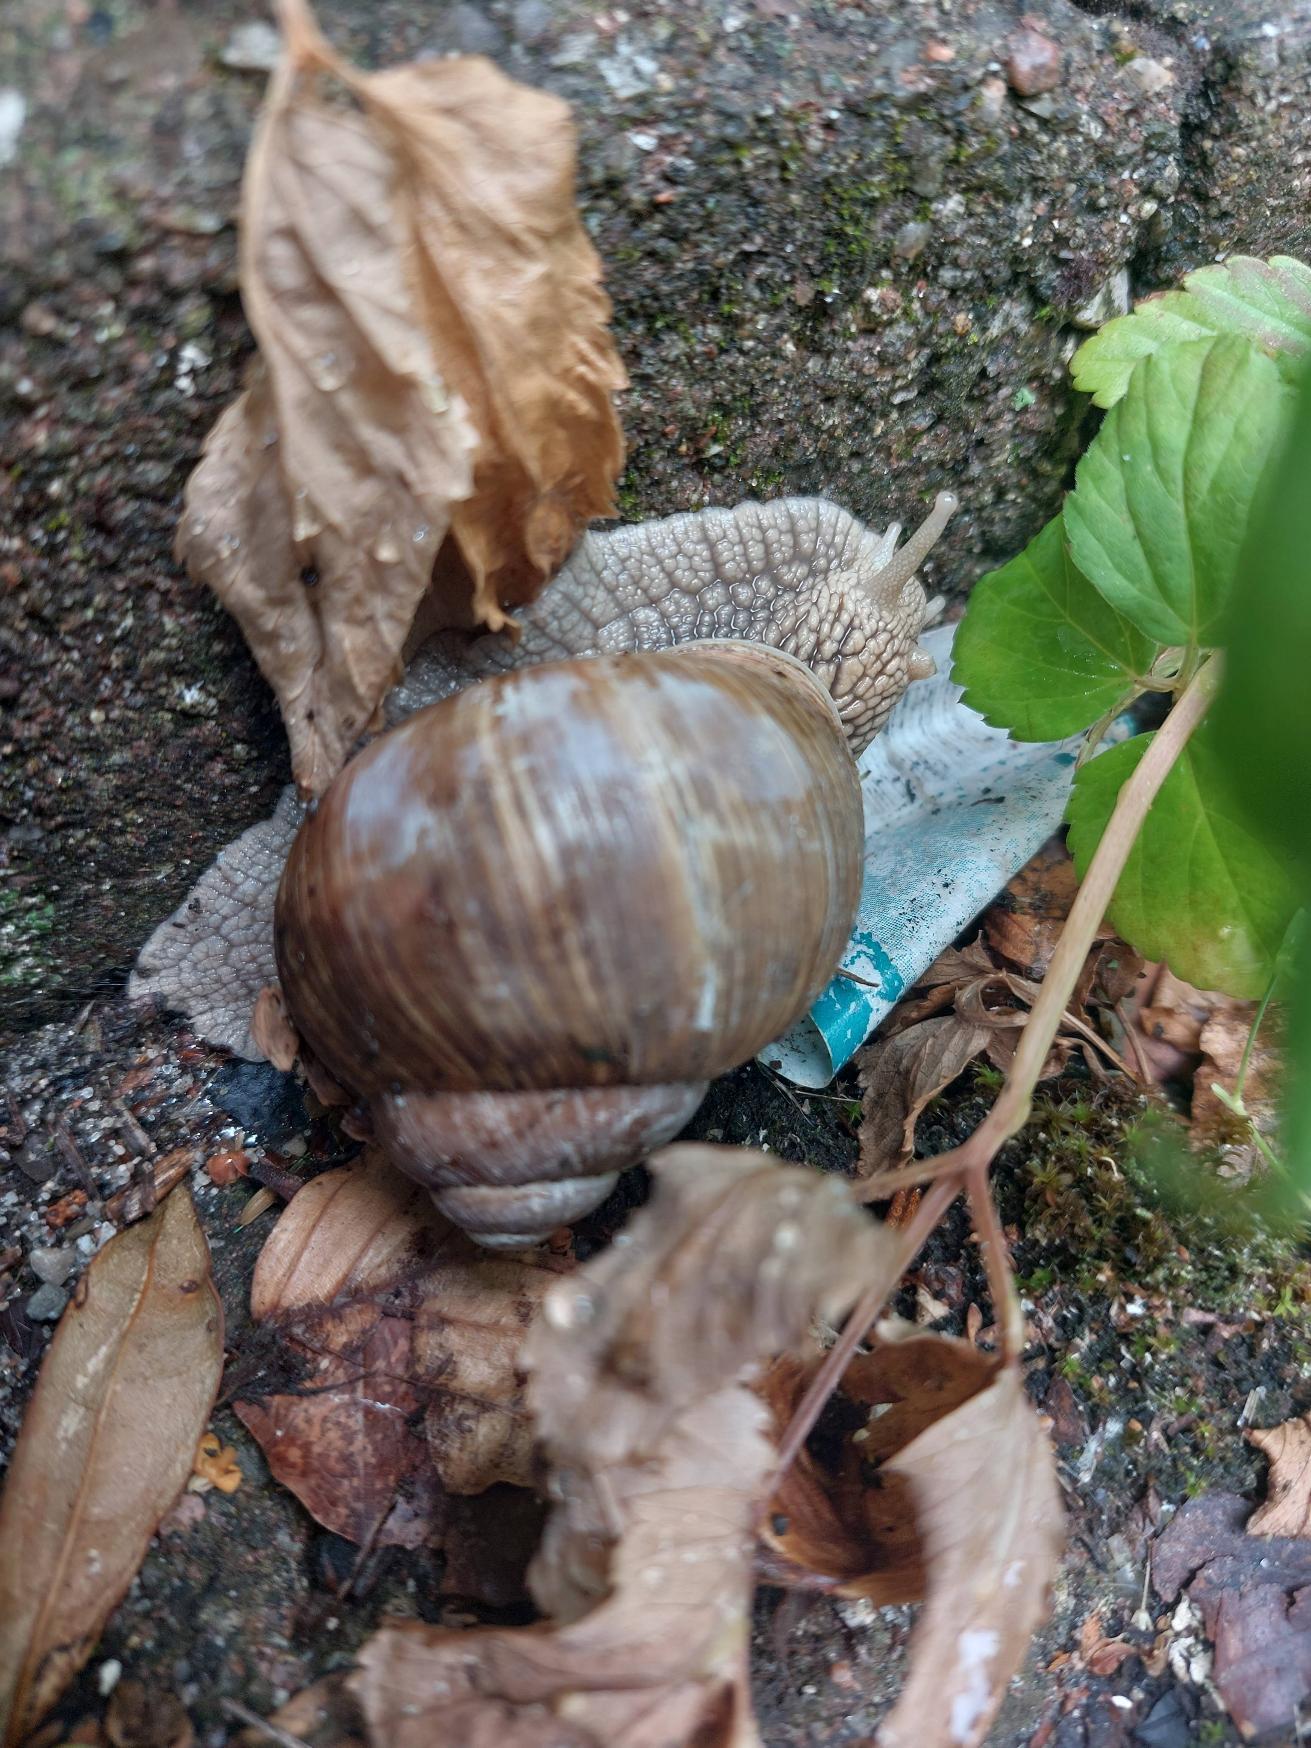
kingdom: Animalia
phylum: Mollusca
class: Gastropoda
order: Stylommatophora
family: Helicidae
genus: Helix
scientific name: Helix pomatia
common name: Vinbjergsnegl
